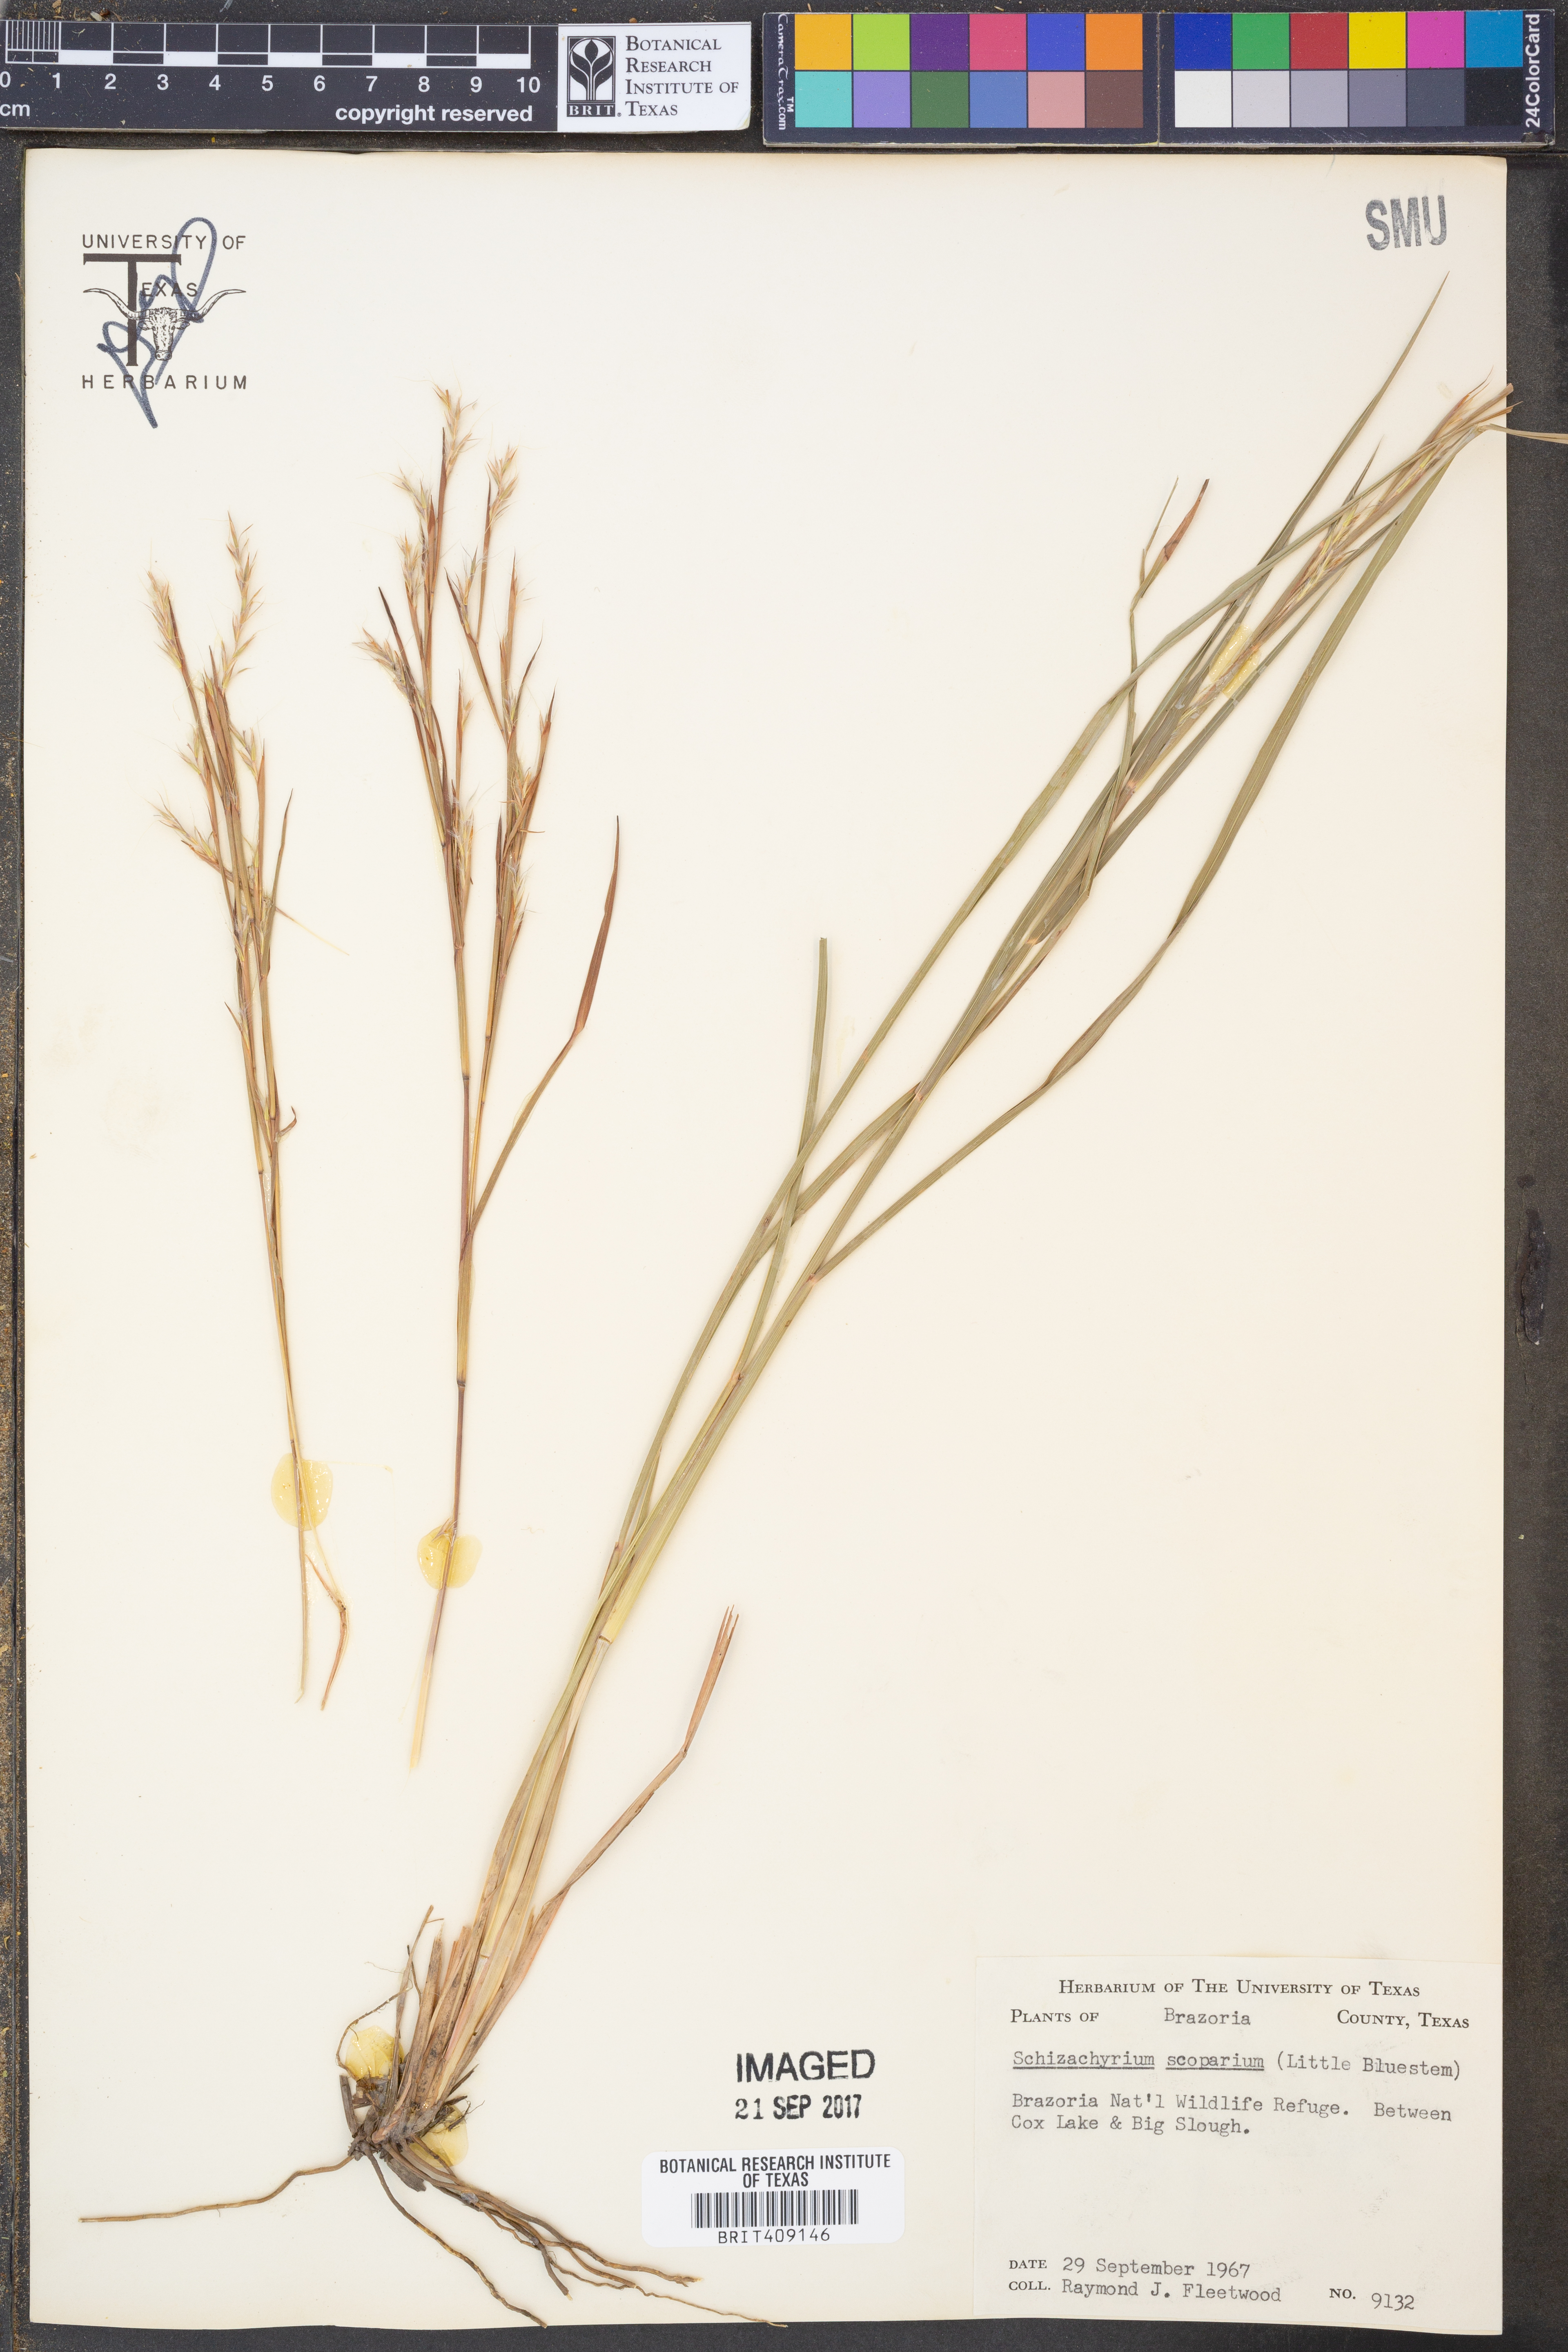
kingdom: Plantae
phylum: Tracheophyta
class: Liliopsida
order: Poales
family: Poaceae
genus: Schizachyrium
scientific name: Schizachyrium scoparium
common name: Little bluestem
